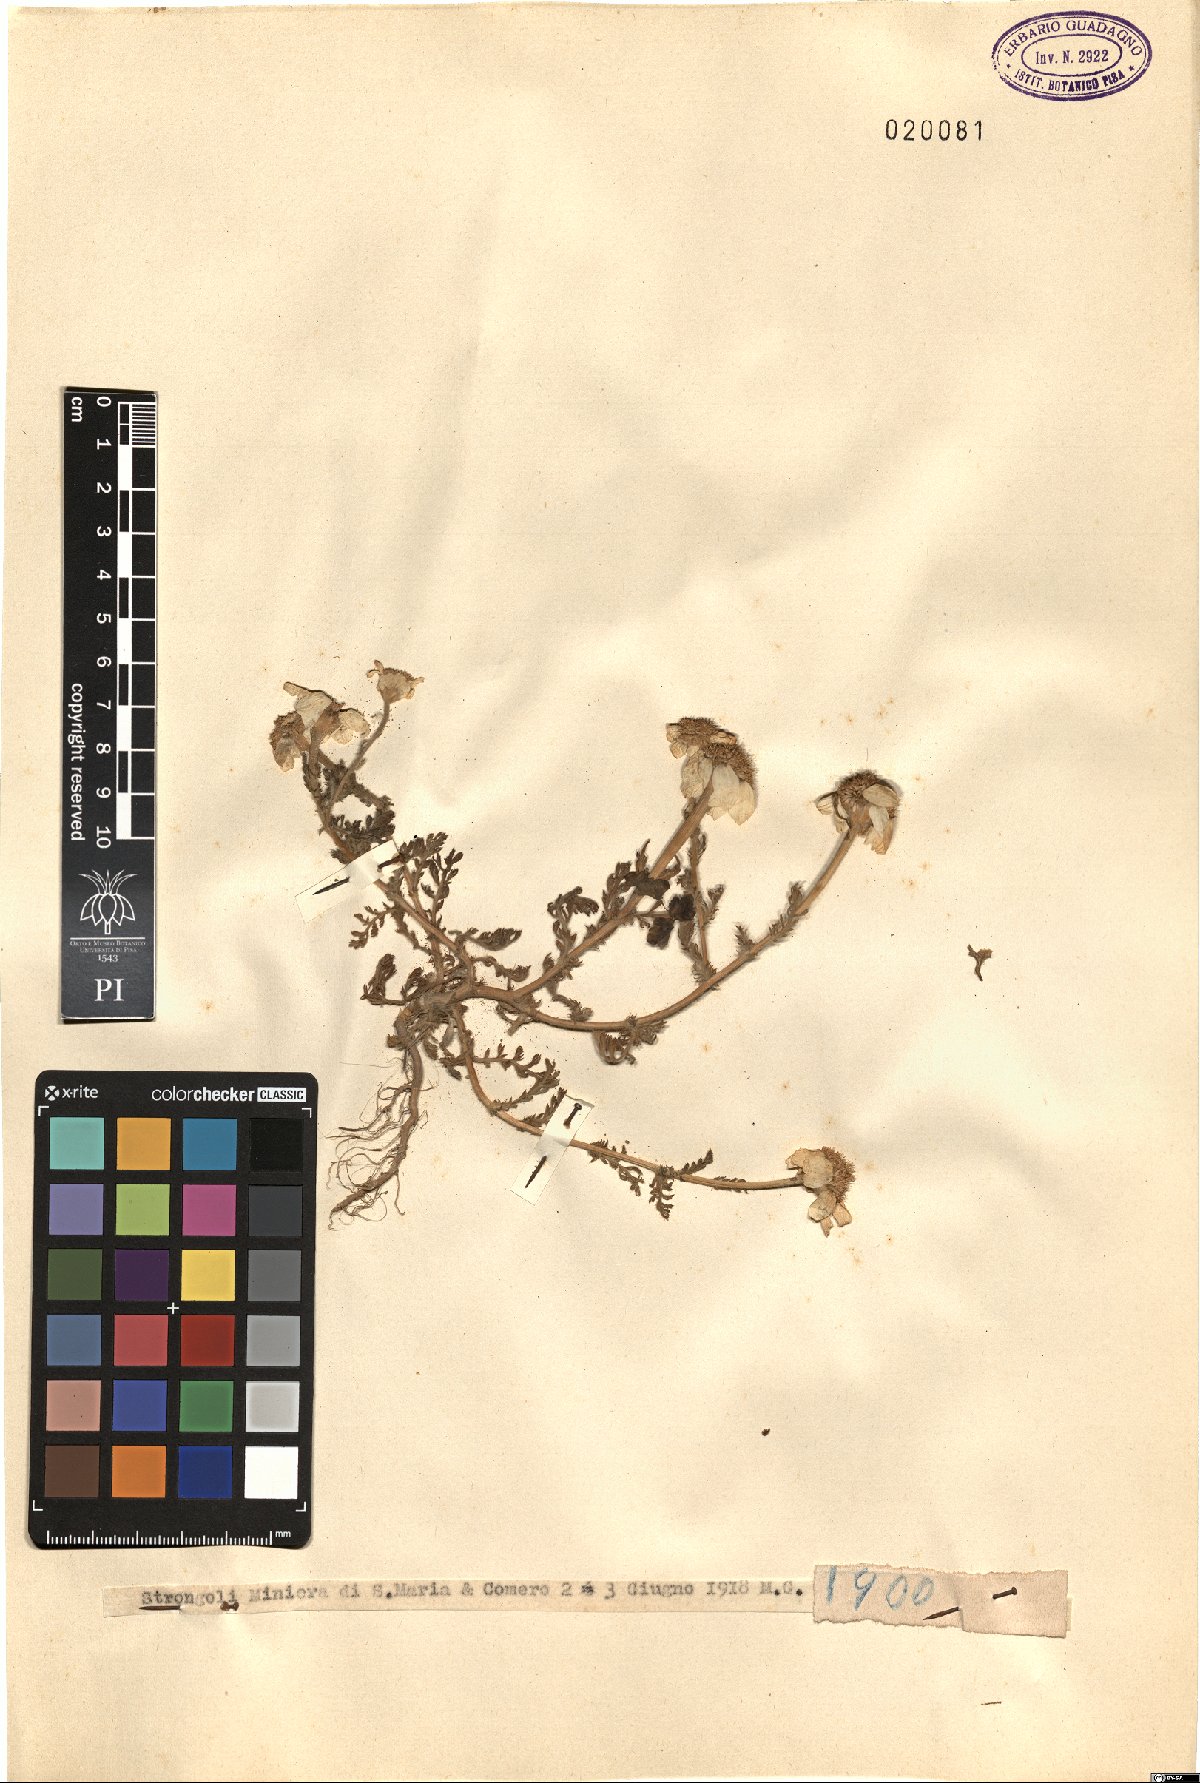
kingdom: Plantae
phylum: Tracheophyta
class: Magnoliopsida
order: Asterales
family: Asteraceae
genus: Anthemis
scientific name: Anthemis
